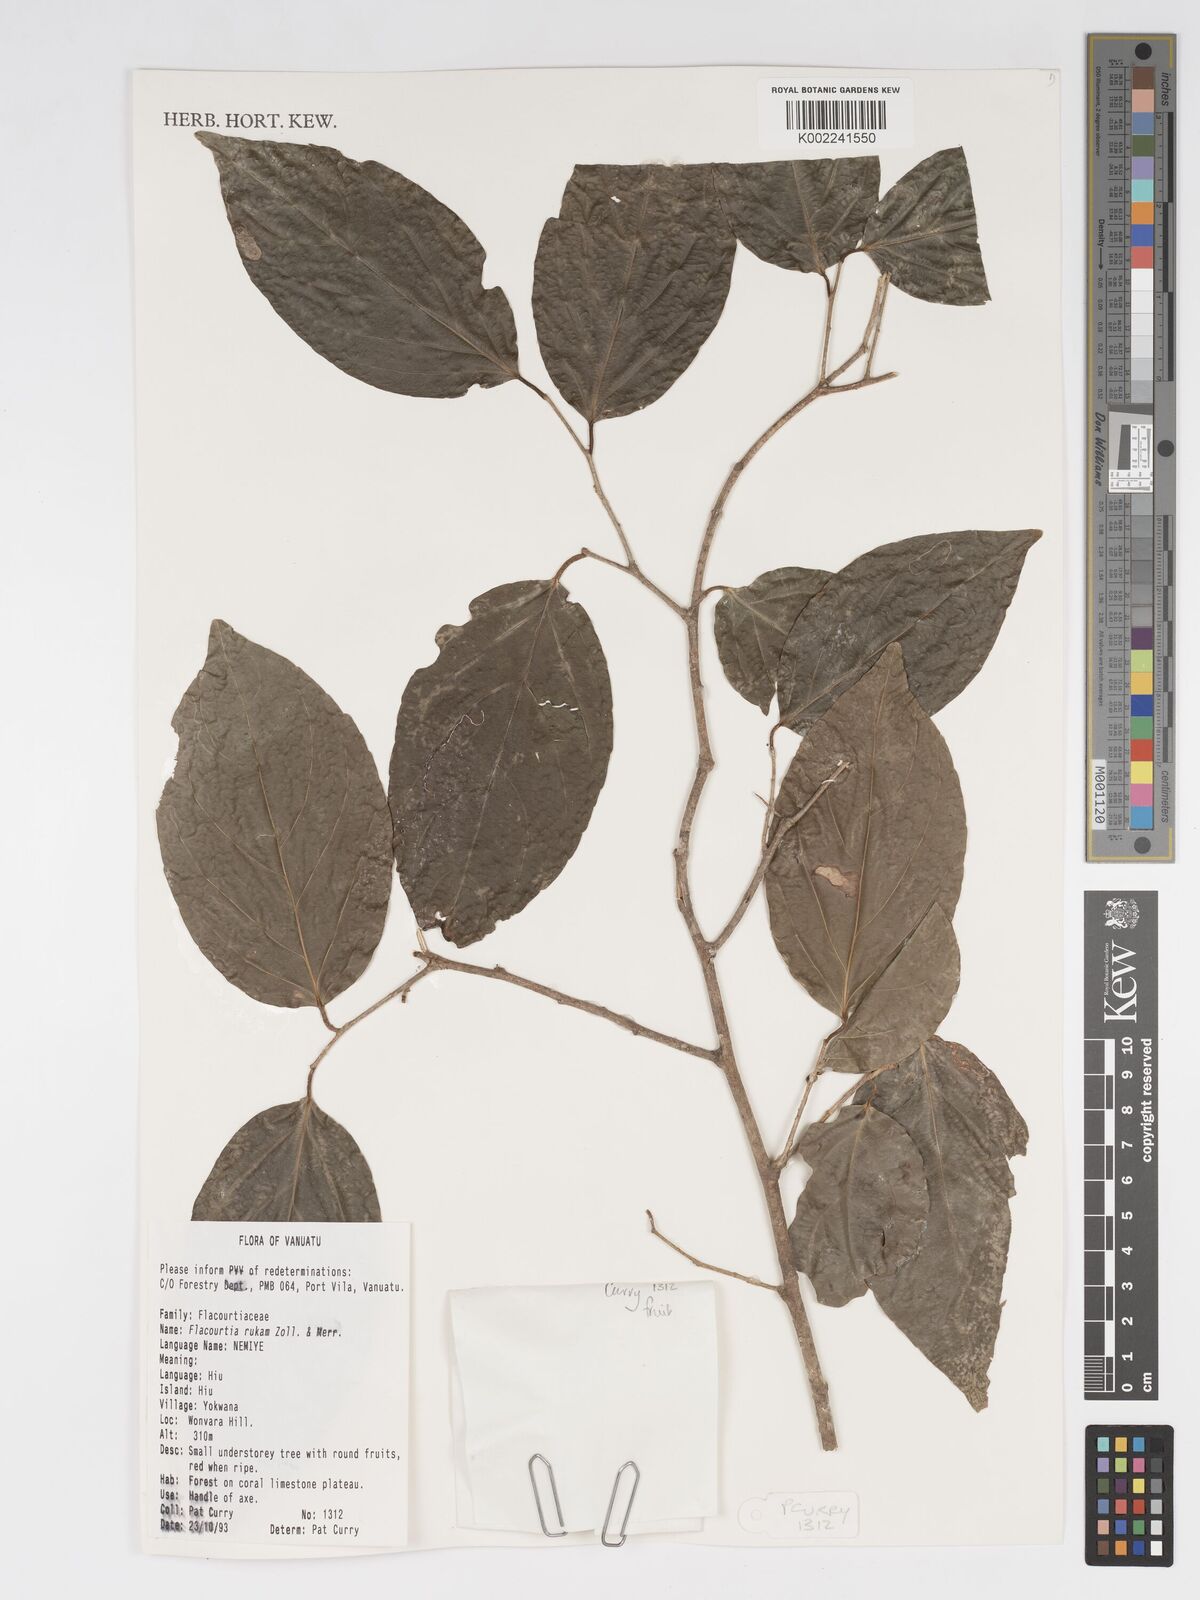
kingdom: Plantae
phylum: Tracheophyta
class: Magnoliopsida
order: Malpighiales
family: Salicaceae
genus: Flacourtia
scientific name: Flacourtia rukam
